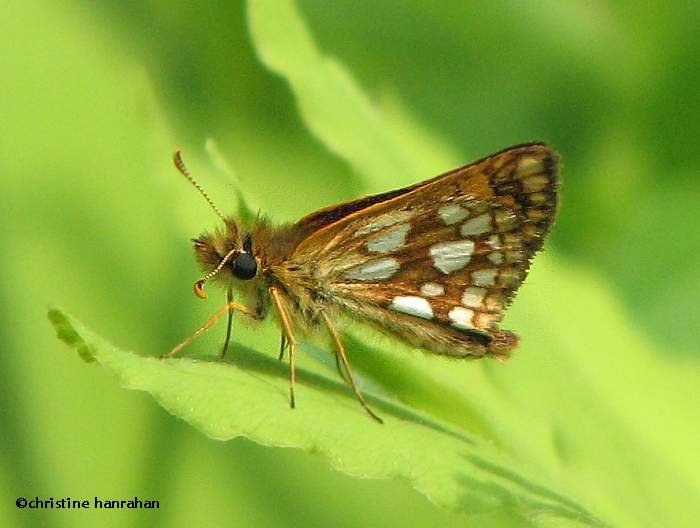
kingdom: Animalia
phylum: Arthropoda
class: Insecta
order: Lepidoptera
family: Hesperiidae
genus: Carterocephalus
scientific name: Carterocephalus palaemon
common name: Chequered Skipper
